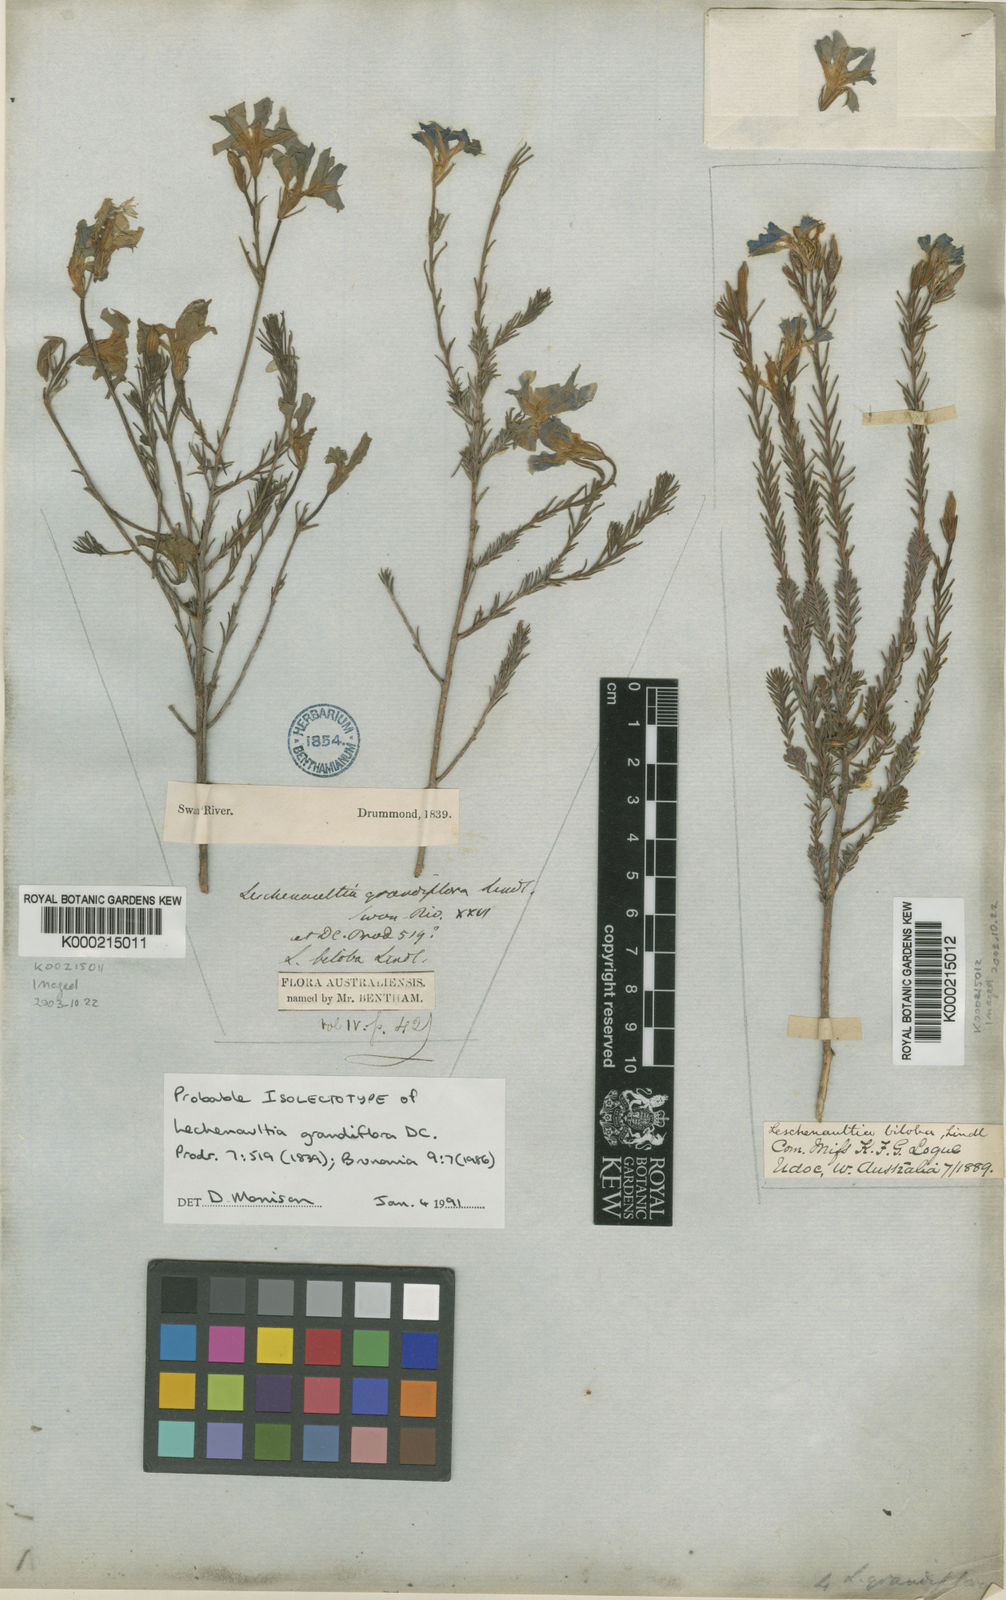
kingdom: Plantae
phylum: Tracheophyta
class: Magnoliopsida
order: Asterales
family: Goodeniaceae
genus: Leschenaultia
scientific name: Leschenaultia biloba
